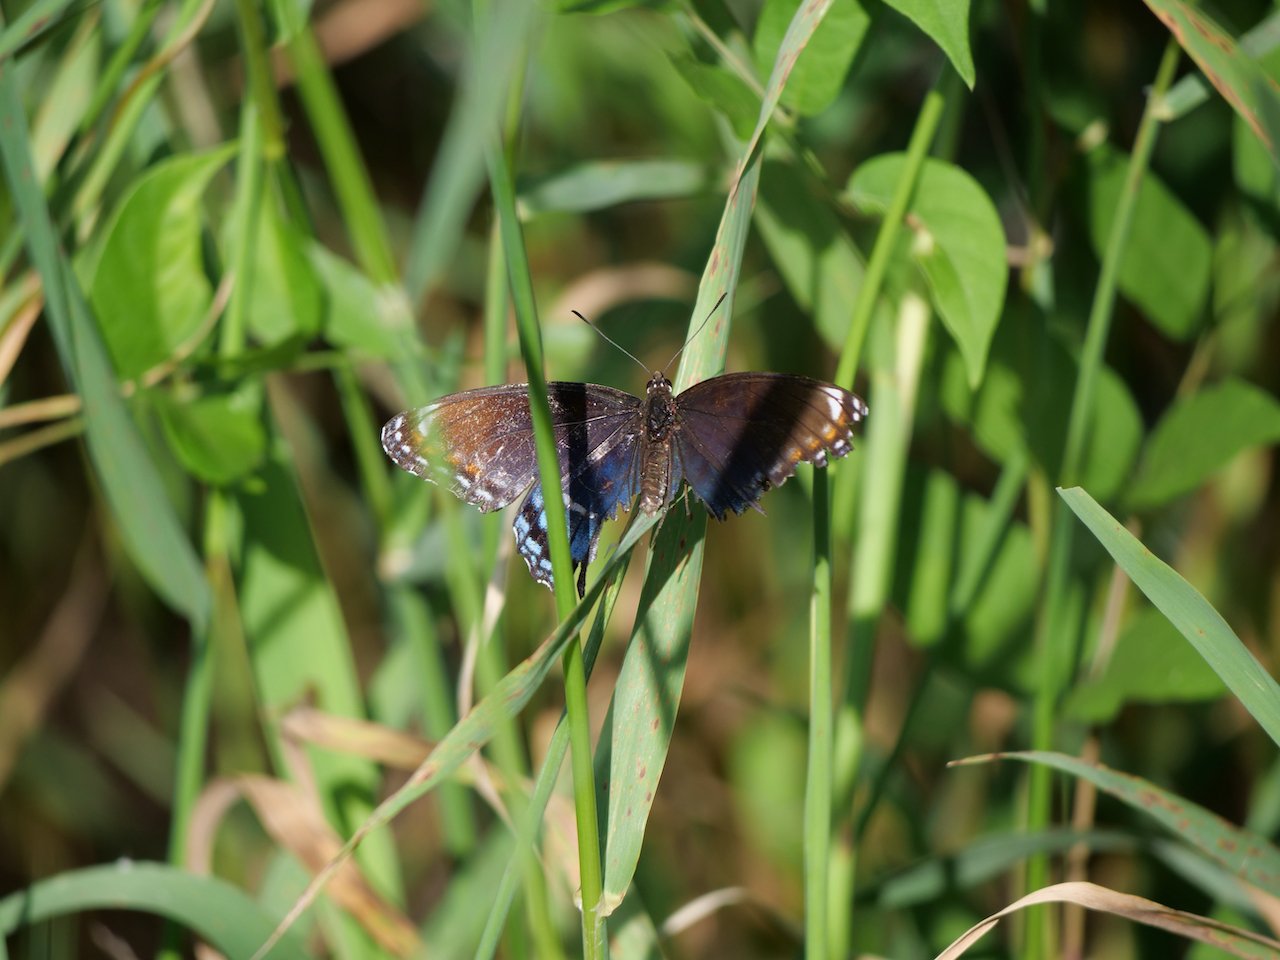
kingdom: Animalia
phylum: Arthropoda
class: Insecta
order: Lepidoptera
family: Nymphalidae
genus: Limenitis
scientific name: Limenitis astyanax
